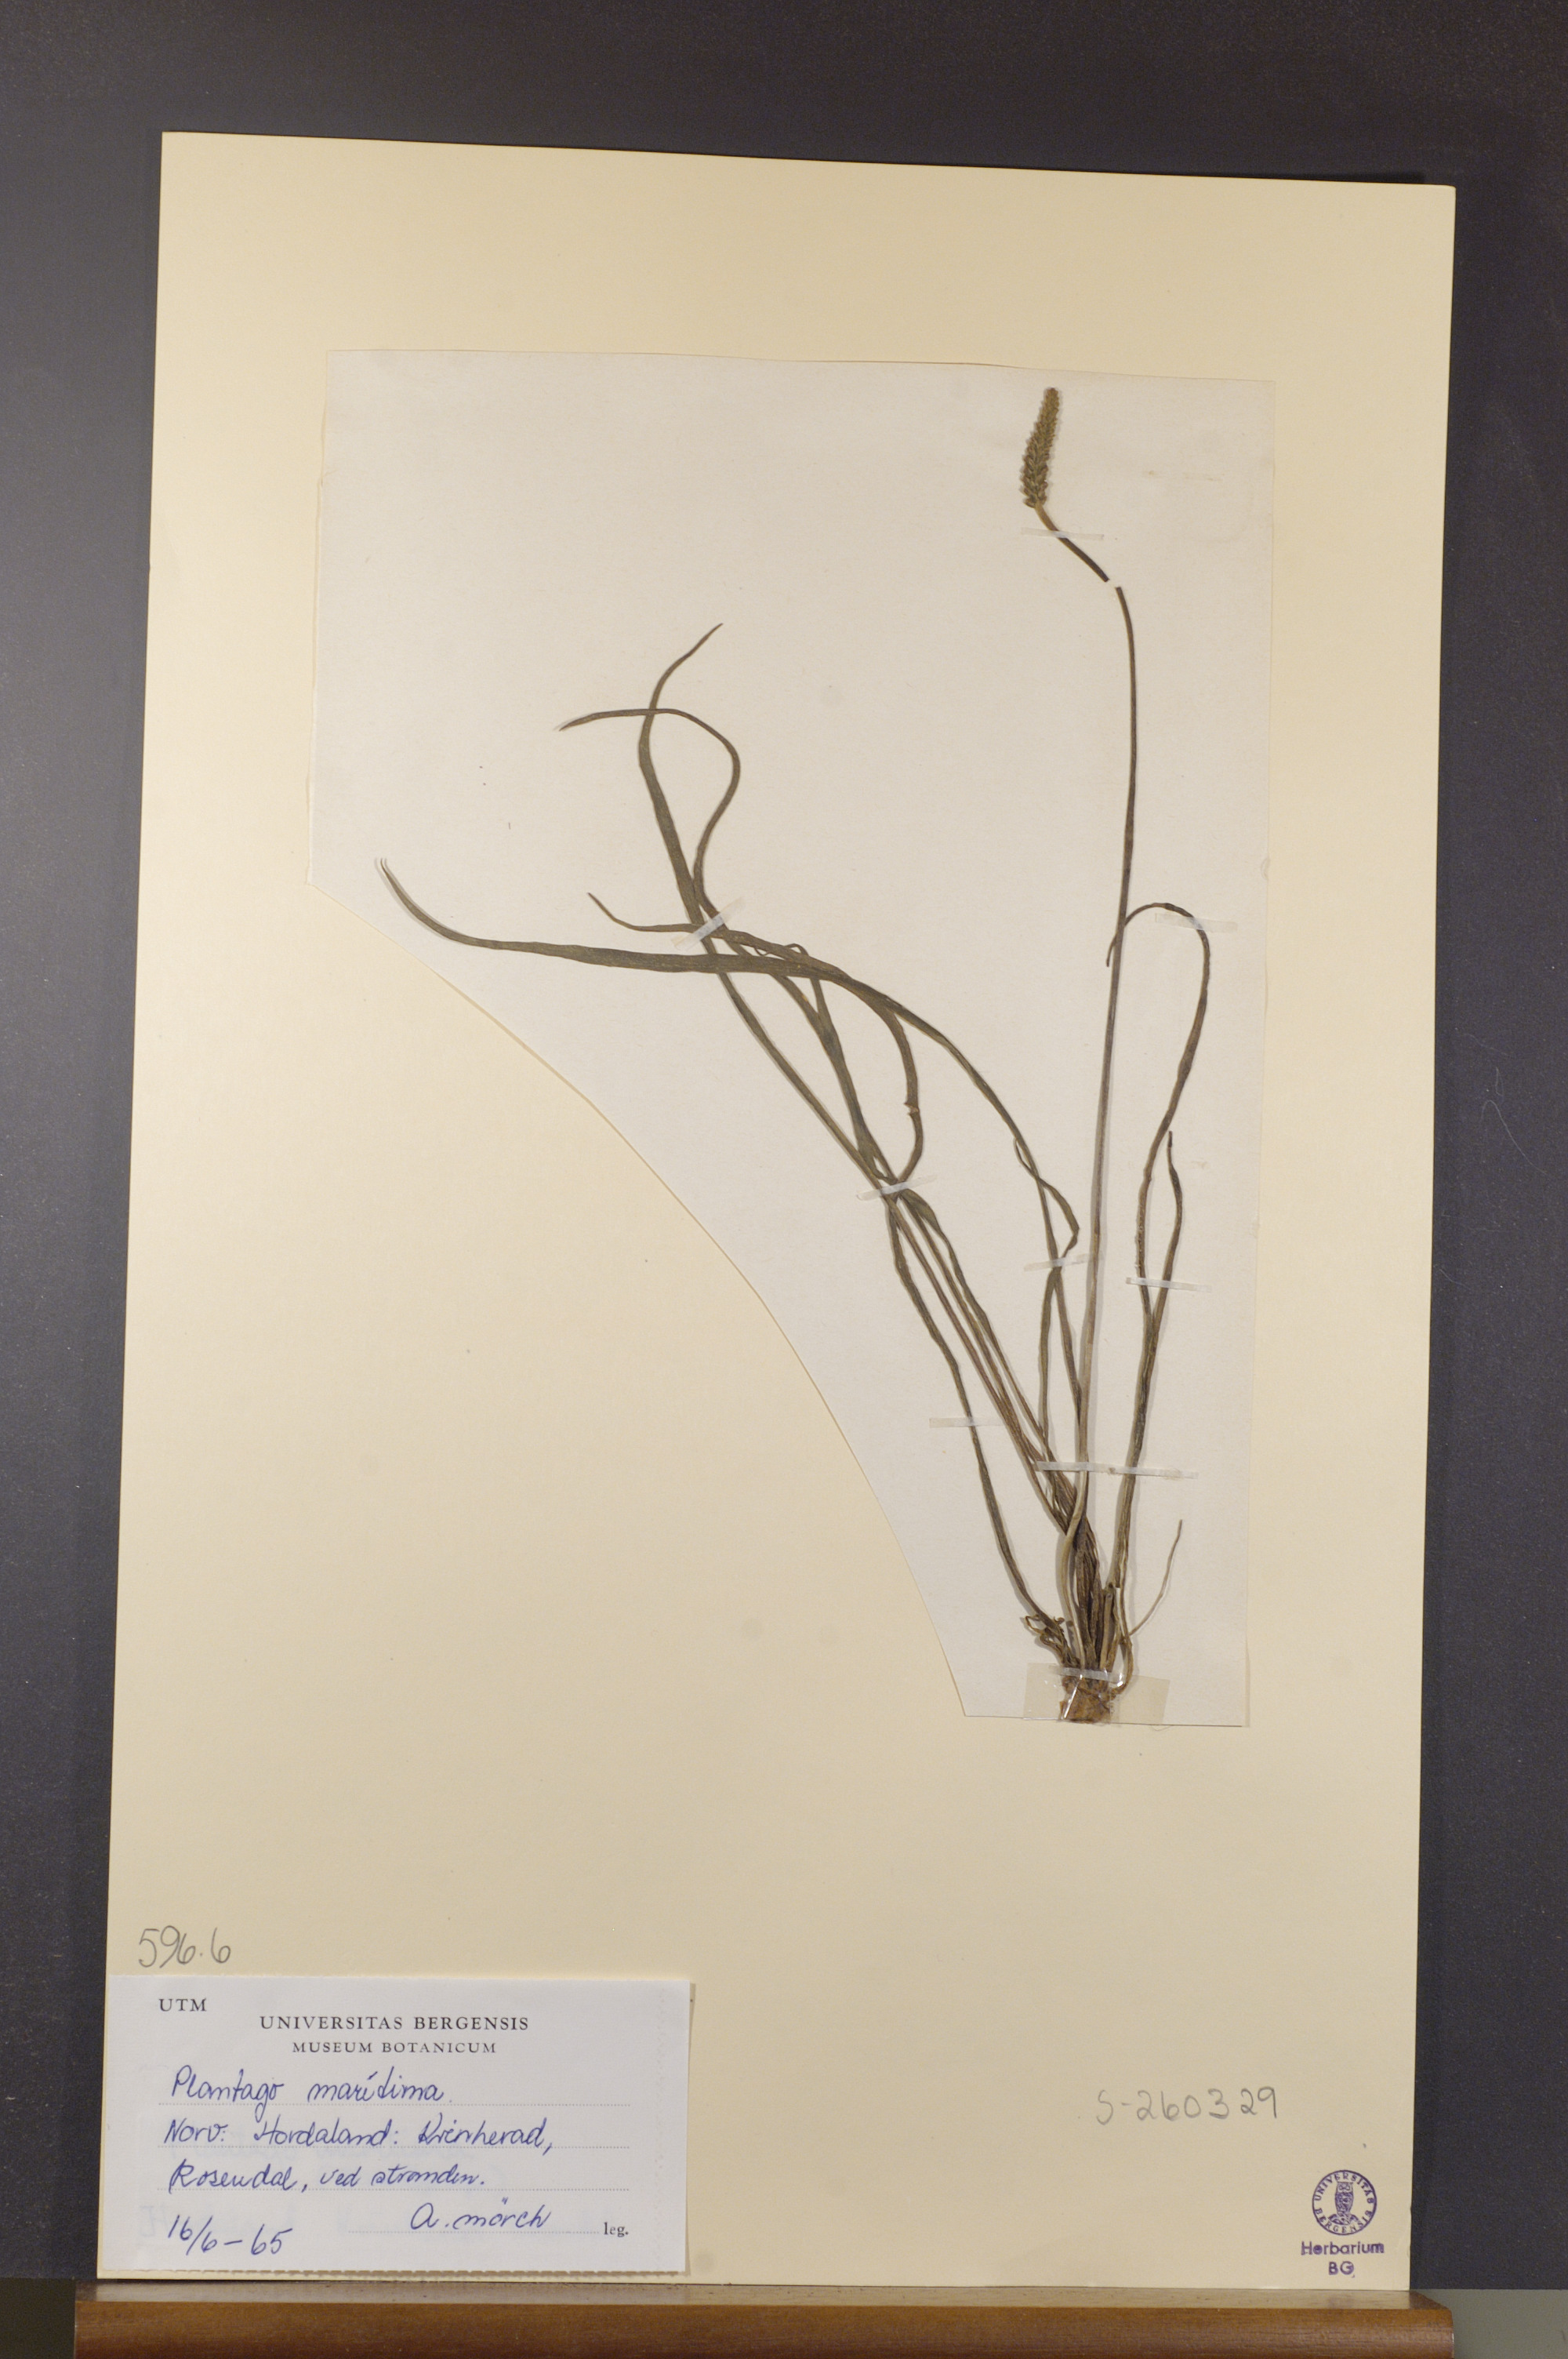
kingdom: Plantae
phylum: Tracheophyta
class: Magnoliopsida
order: Lamiales
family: Plantaginaceae
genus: Plantago
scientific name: Plantago maritima
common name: Sea plantain
